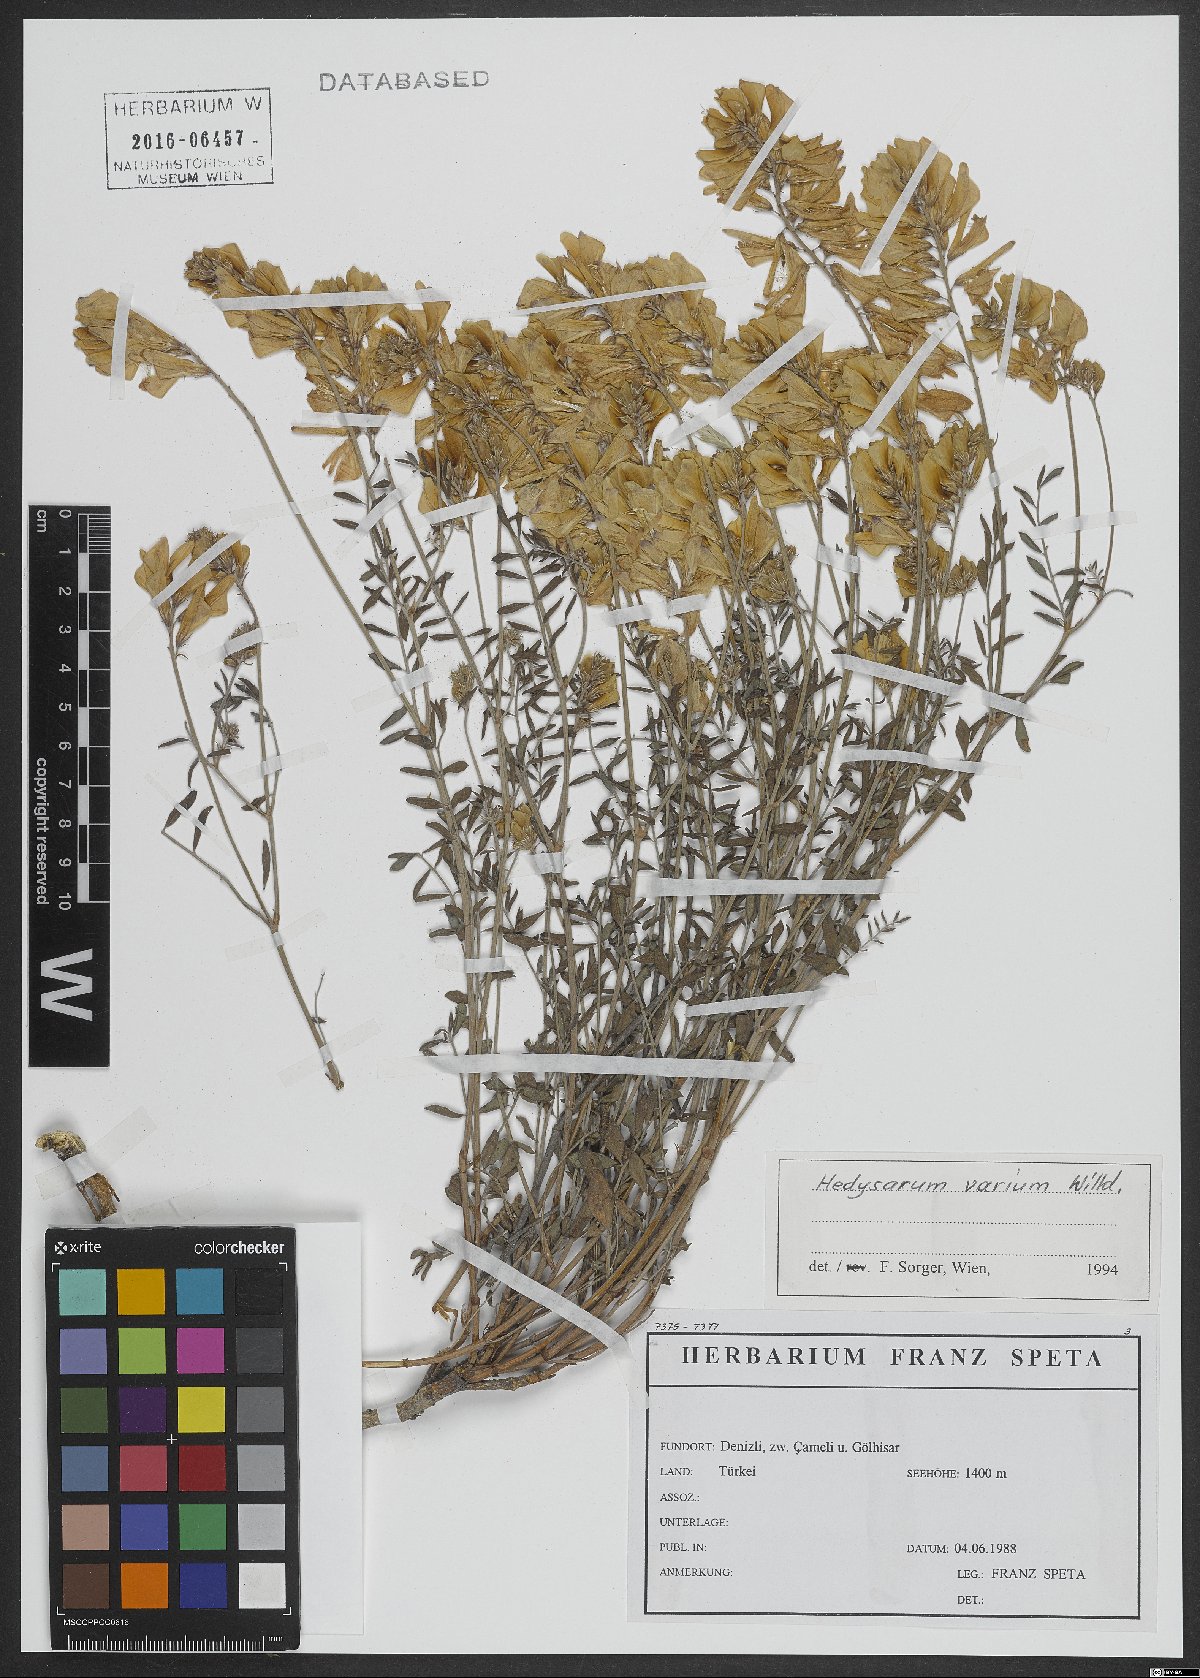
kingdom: Plantae
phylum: Tracheophyta
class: Magnoliopsida
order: Fabales
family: Fabaceae
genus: Hedysarum
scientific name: Hedysarum varium
